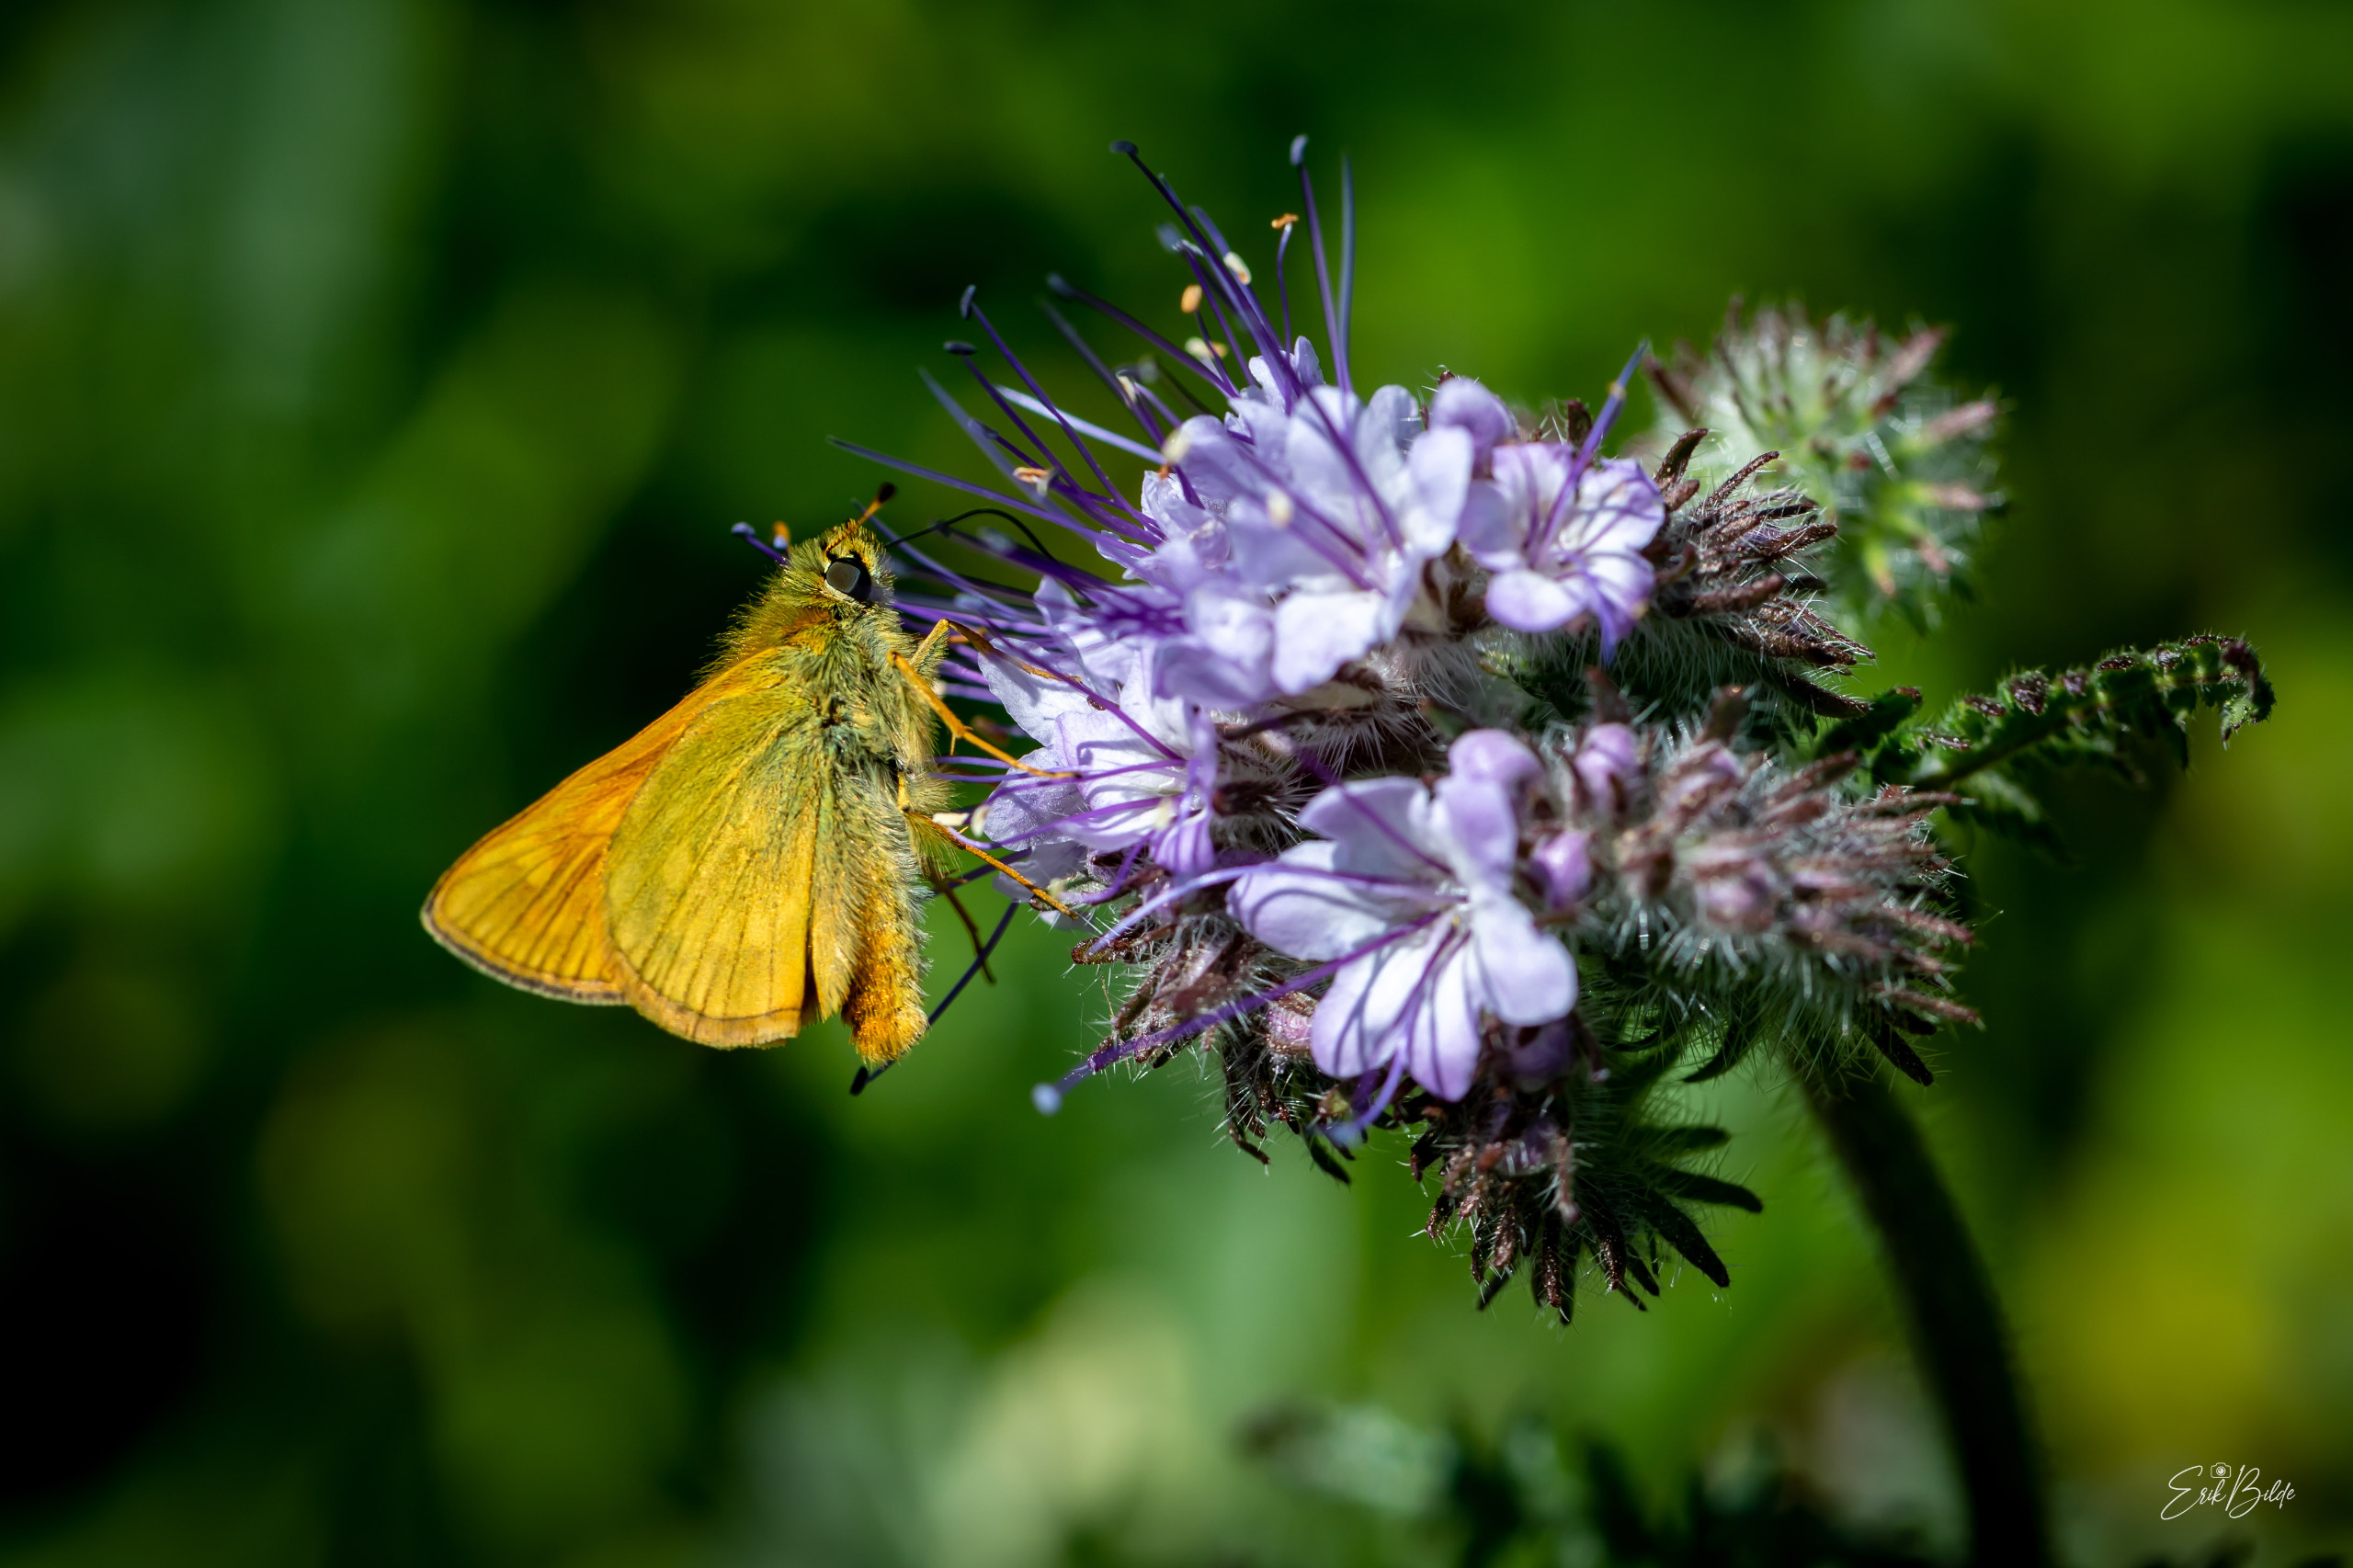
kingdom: Animalia
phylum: Arthropoda
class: Insecta
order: Lepidoptera
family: Hesperiidae
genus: Ochlodes
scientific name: Ochlodes venata
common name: Stor bredpande
